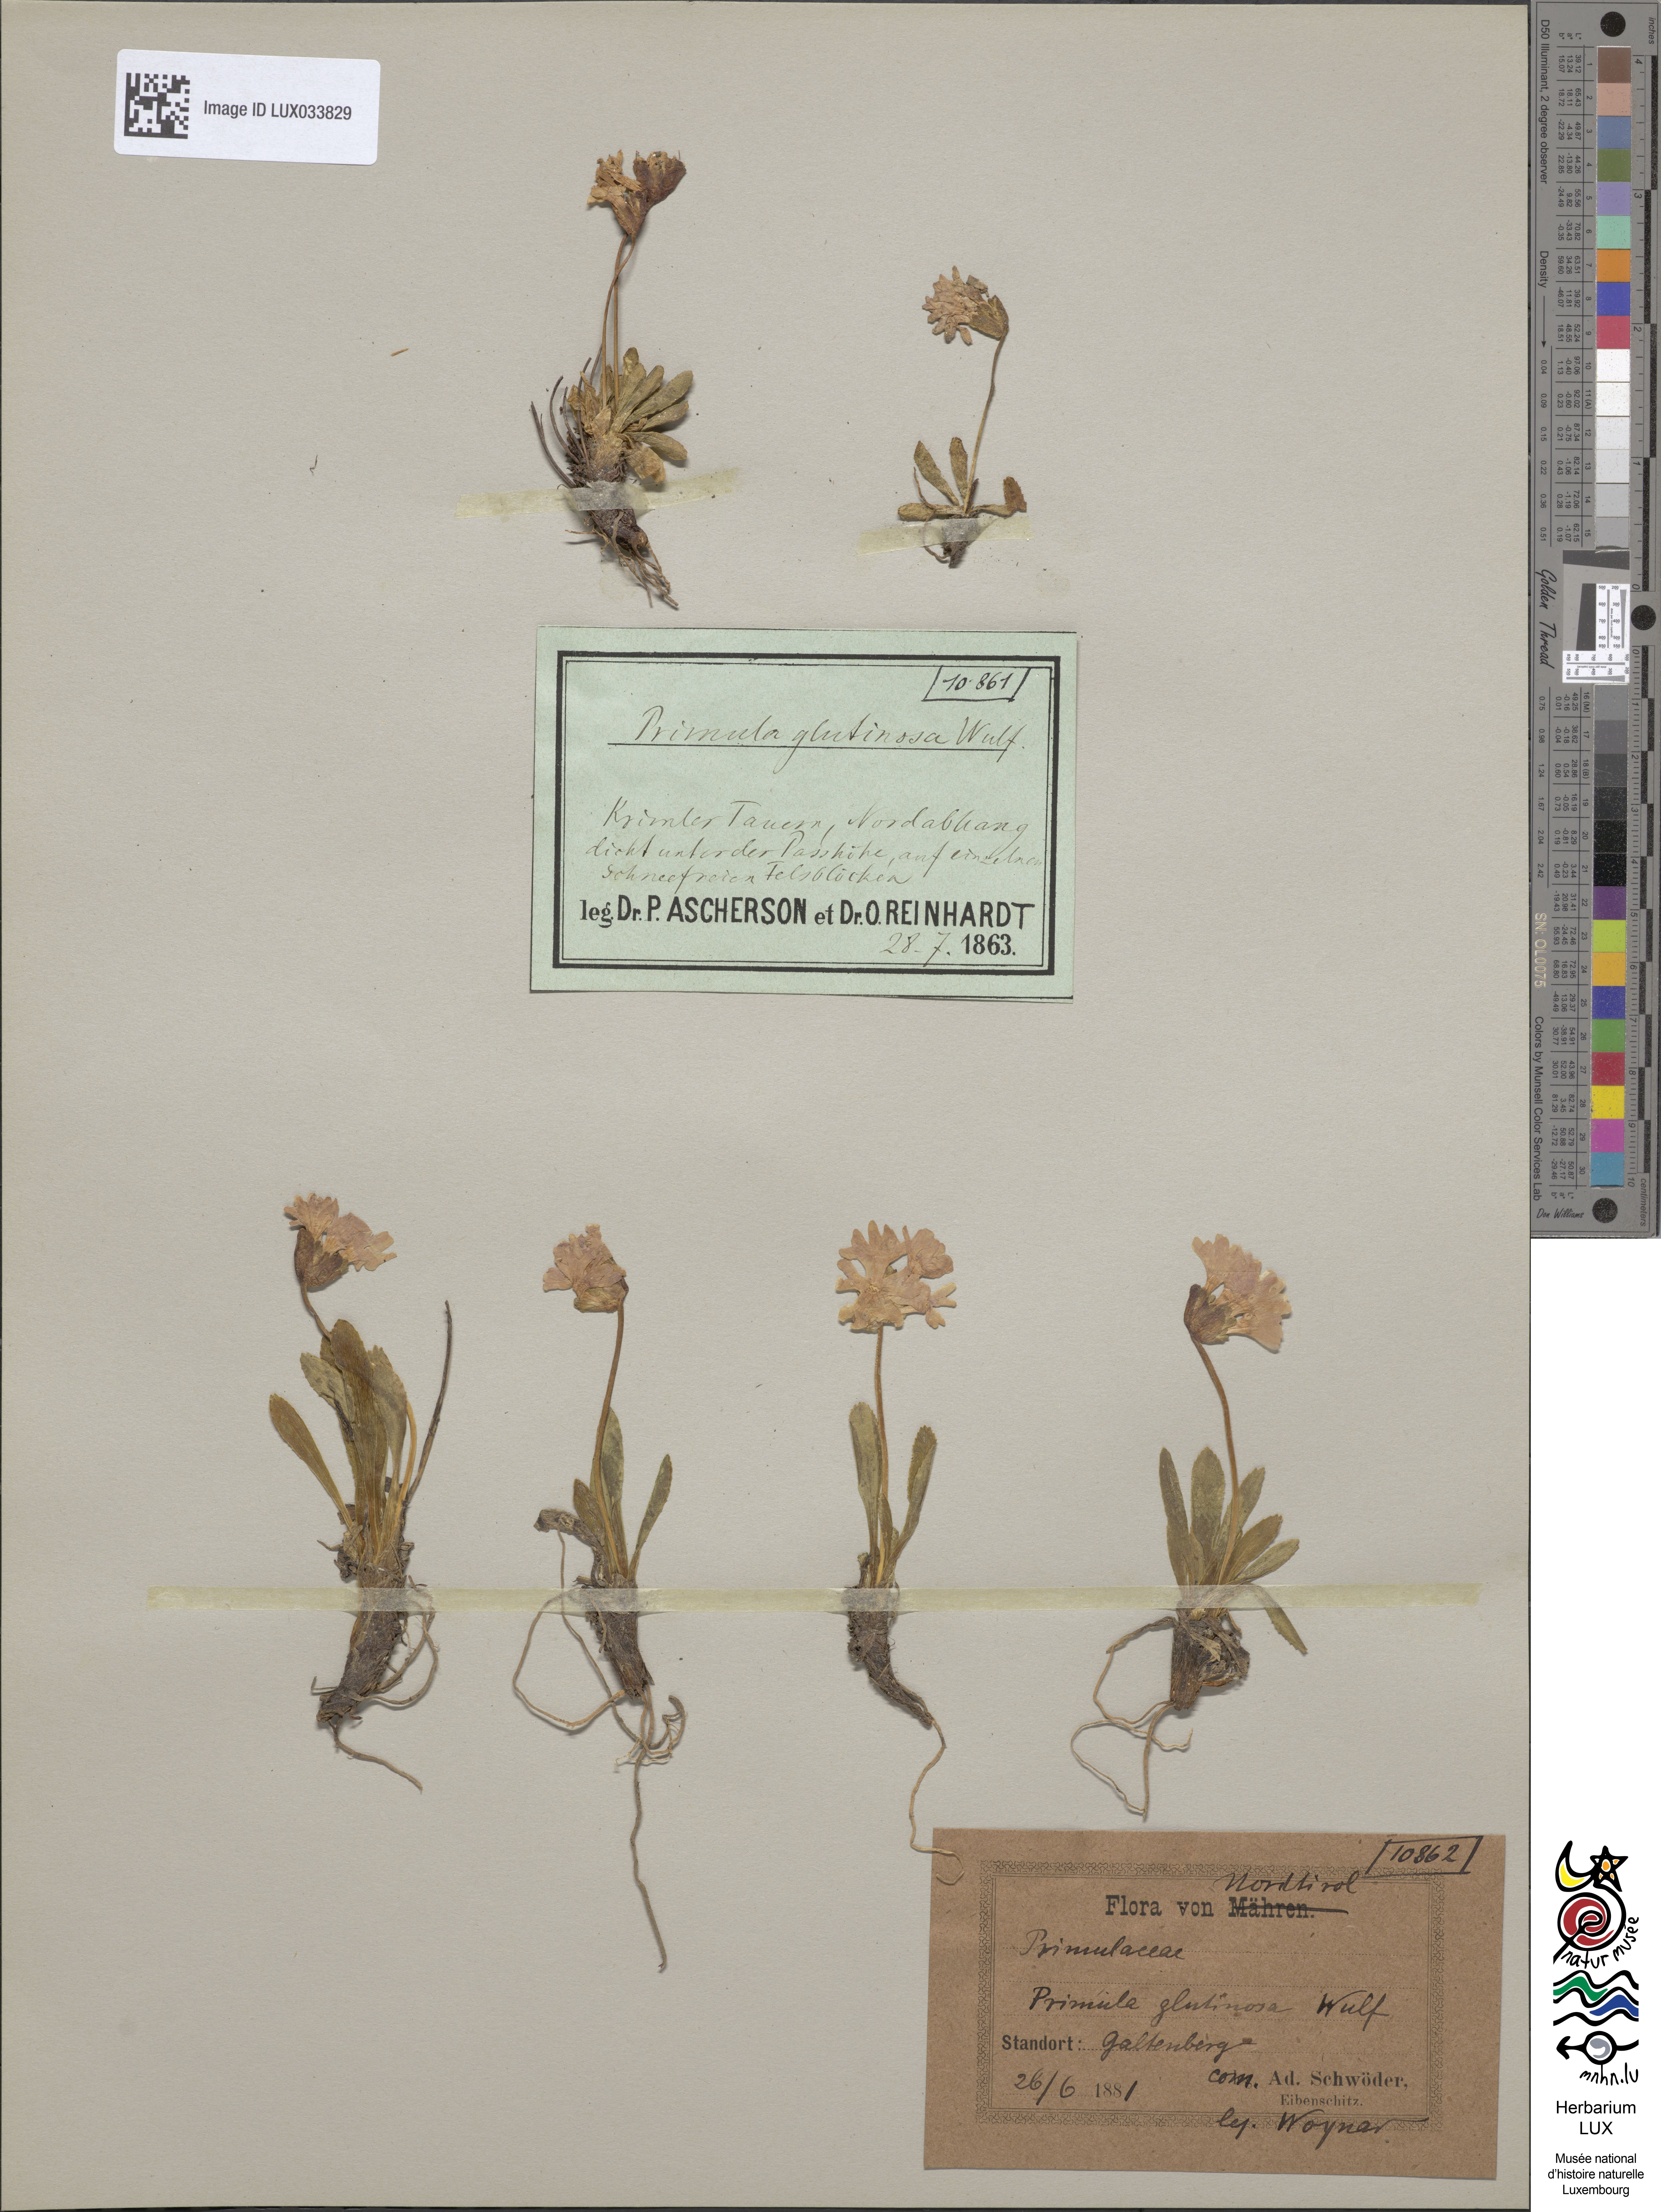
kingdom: Plantae
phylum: Tracheophyta
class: Magnoliopsida
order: Ericales
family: Primulaceae
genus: Primula
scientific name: Primula glutinosa
